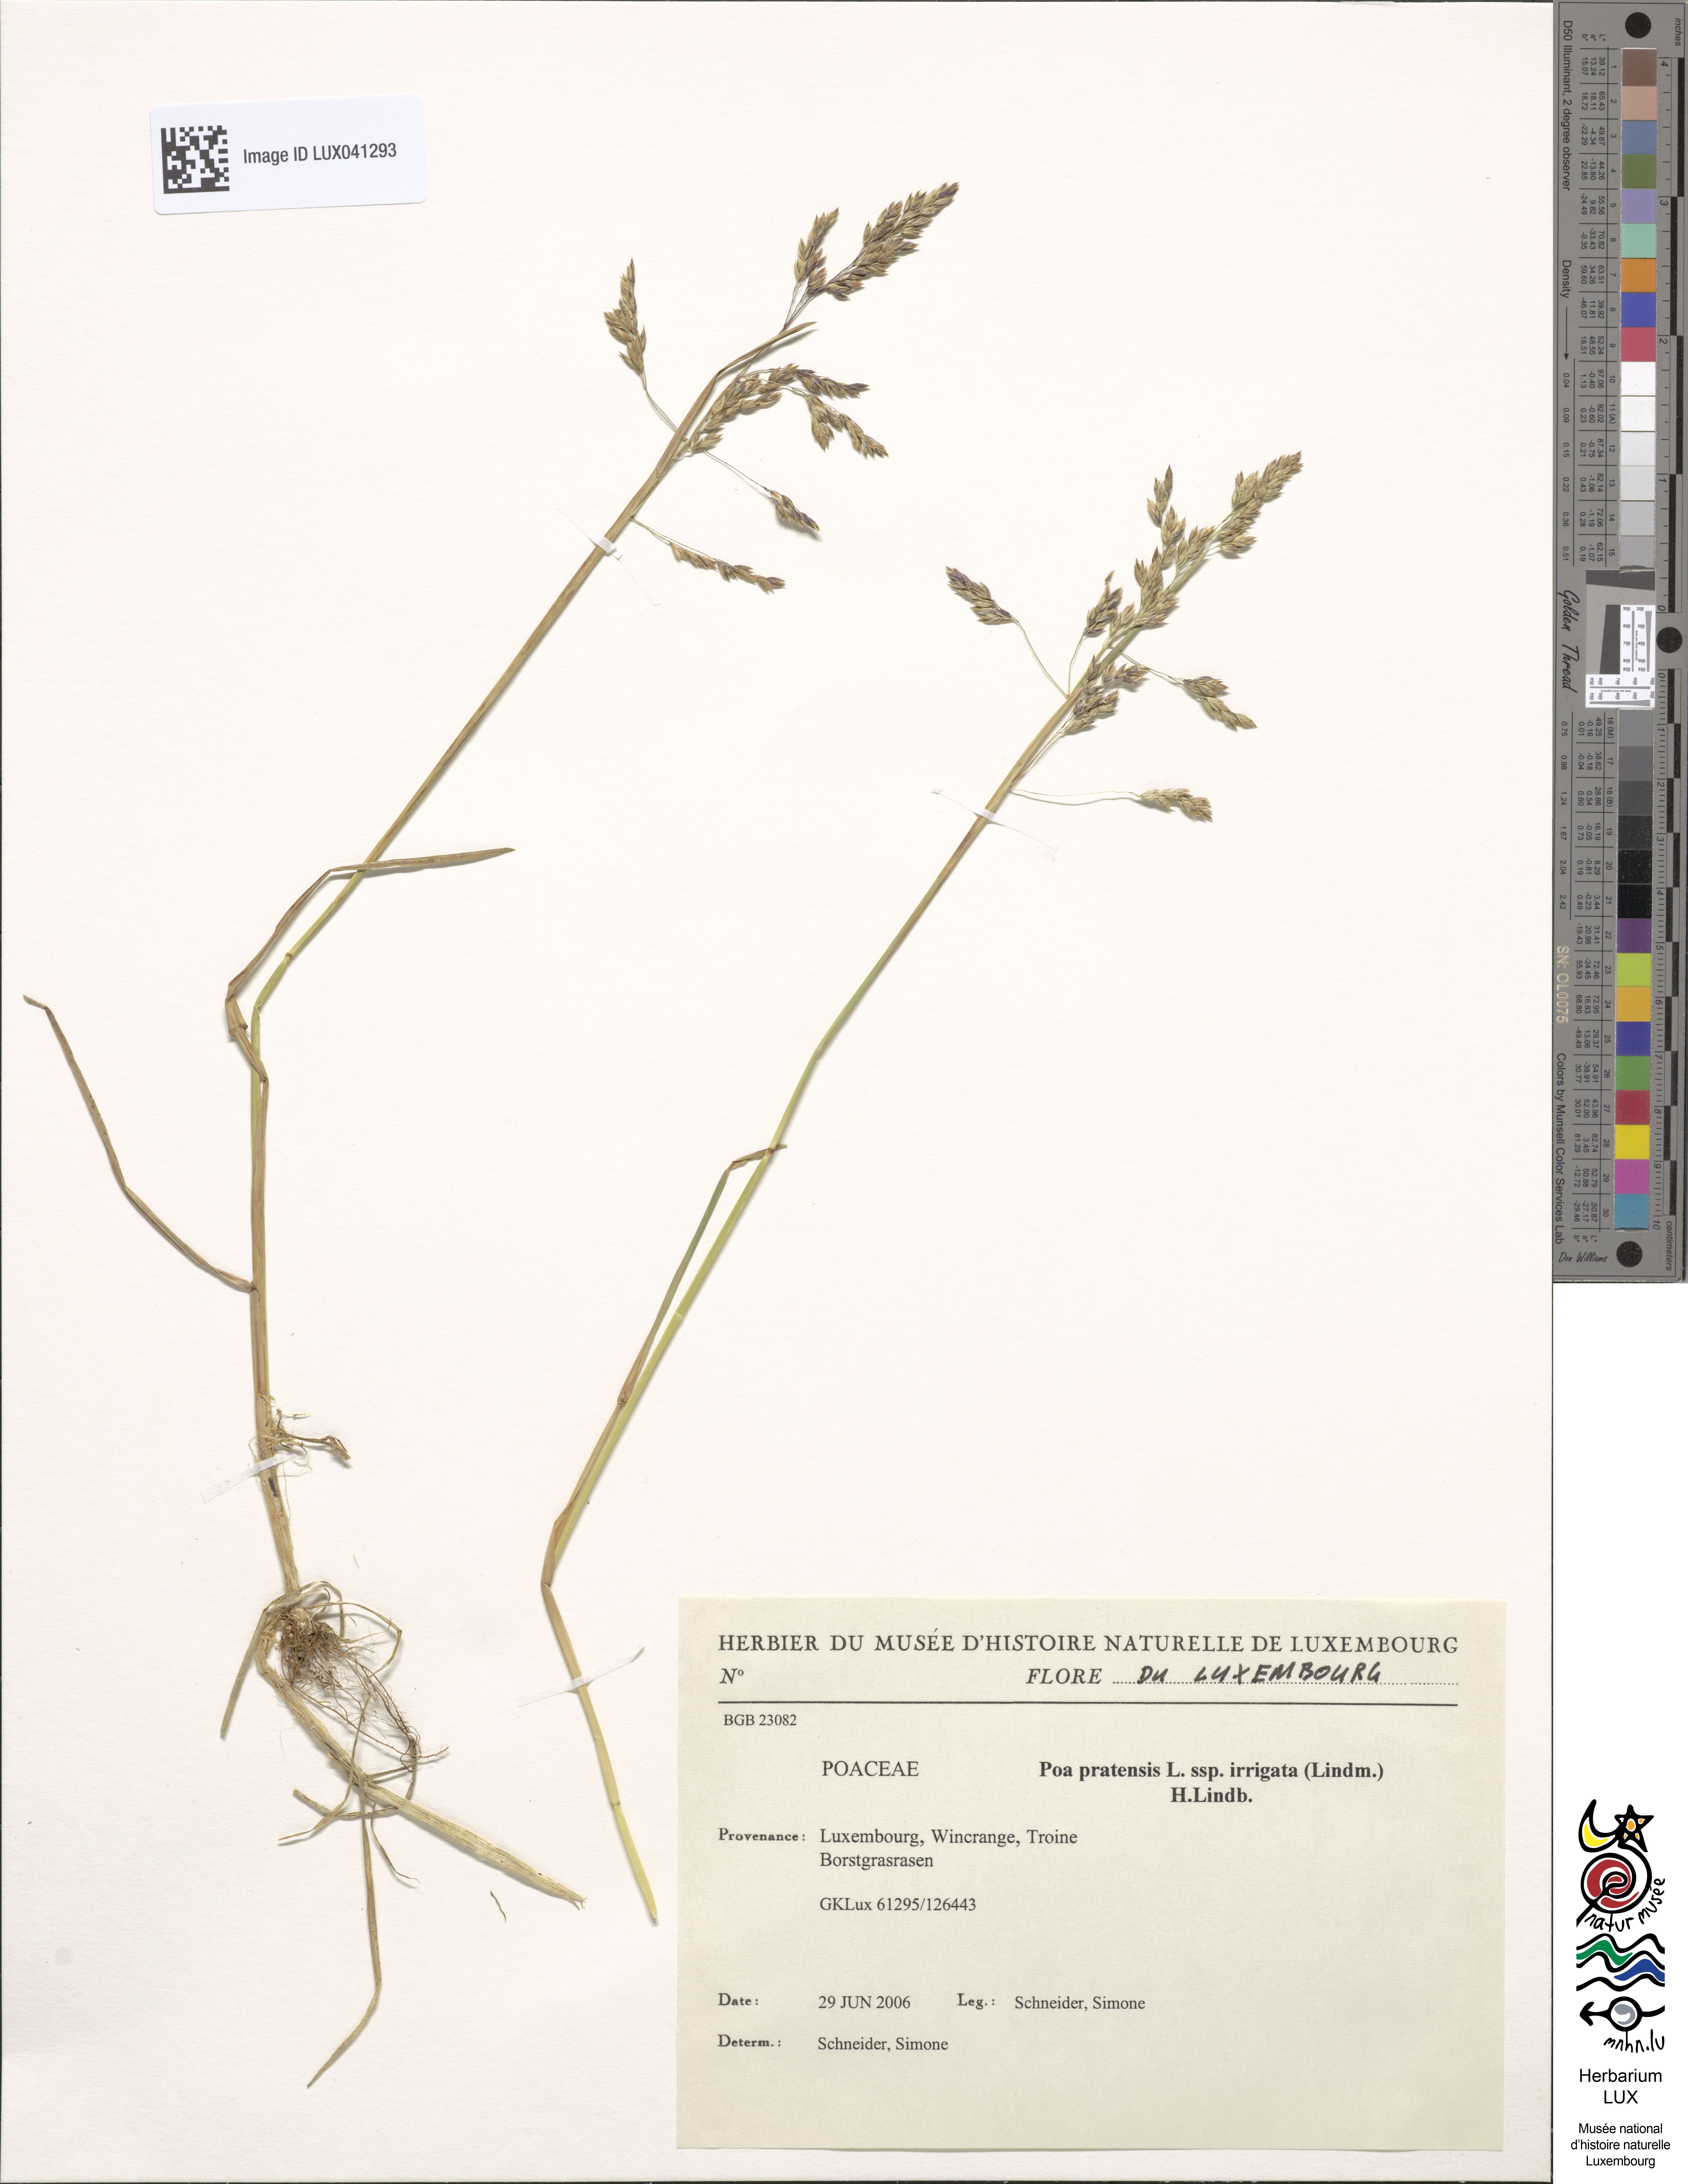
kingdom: Plantae
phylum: Tracheophyta
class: Liliopsida
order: Poales
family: Poaceae
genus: Poa
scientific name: Poa humilis
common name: Spreading meadow-grass
